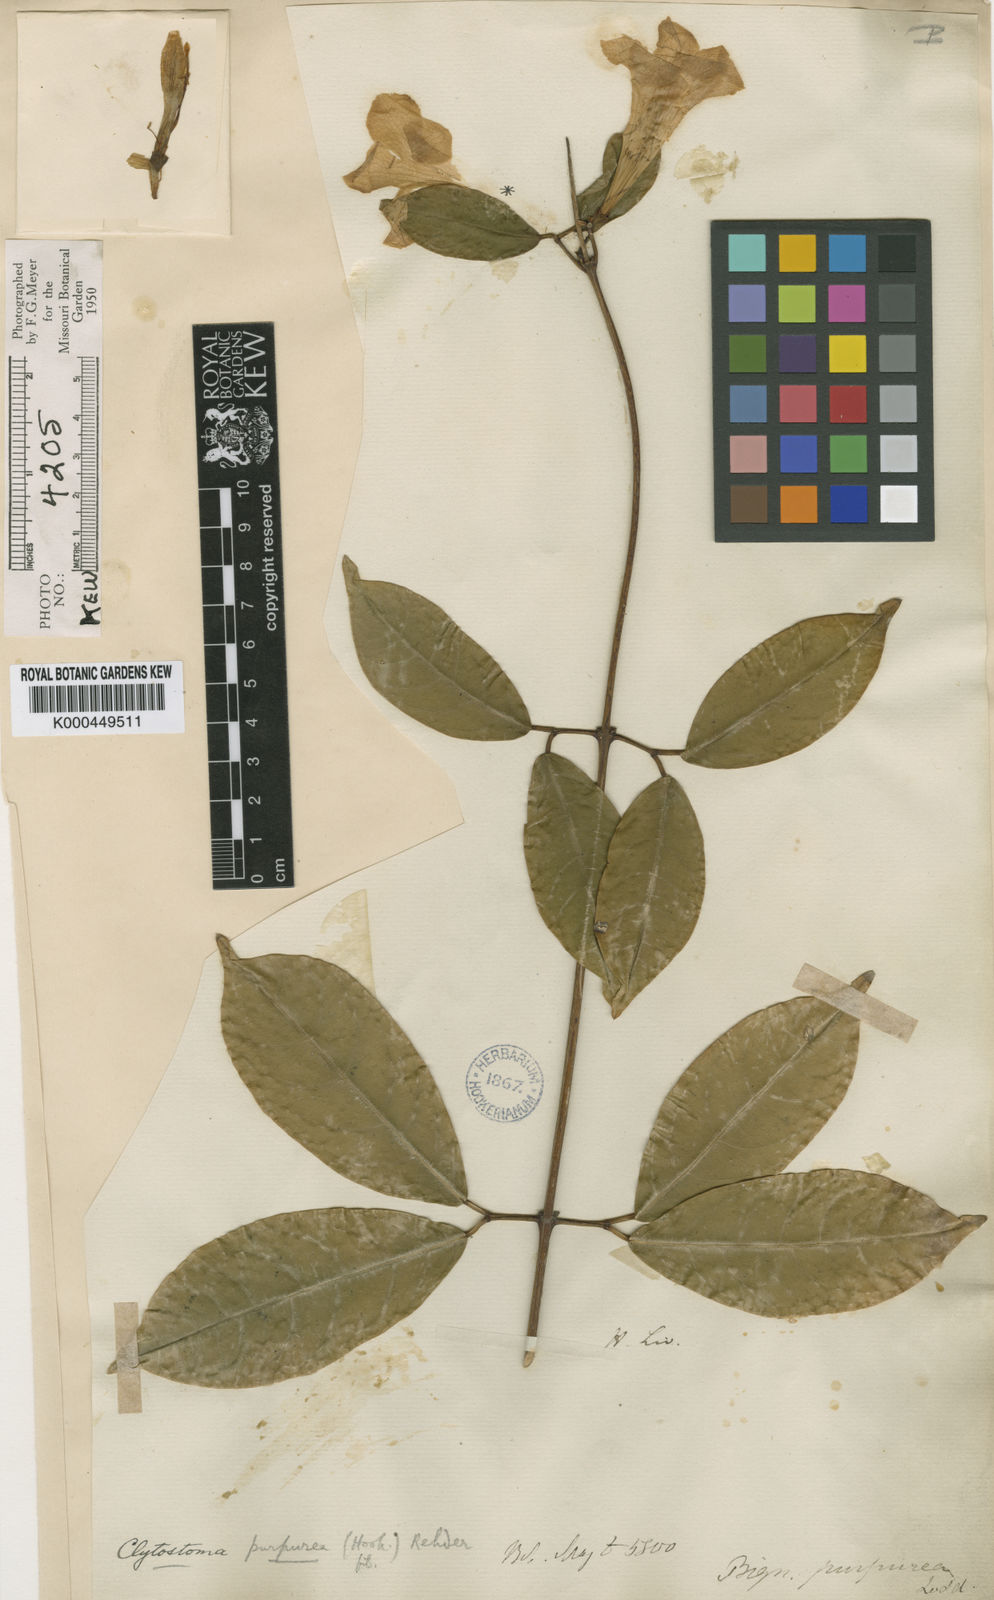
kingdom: Plantae
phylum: Tracheophyta
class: Magnoliopsida
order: Lamiales
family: Bignoniaceae
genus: Bignonia
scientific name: Bignonia
